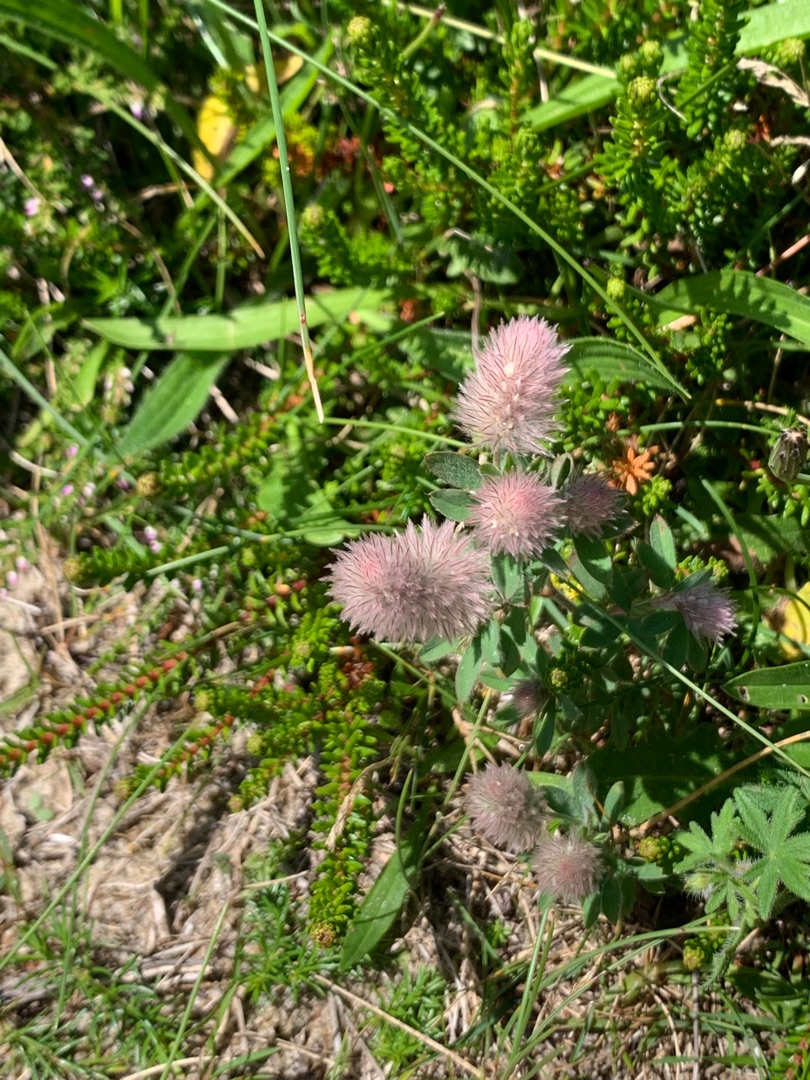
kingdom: Plantae
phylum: Tracheophyta
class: Magnoliopsida
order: Fabales
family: Fabaceae
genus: Trifolium
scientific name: Trifolium arvense
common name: Hare-kløver
